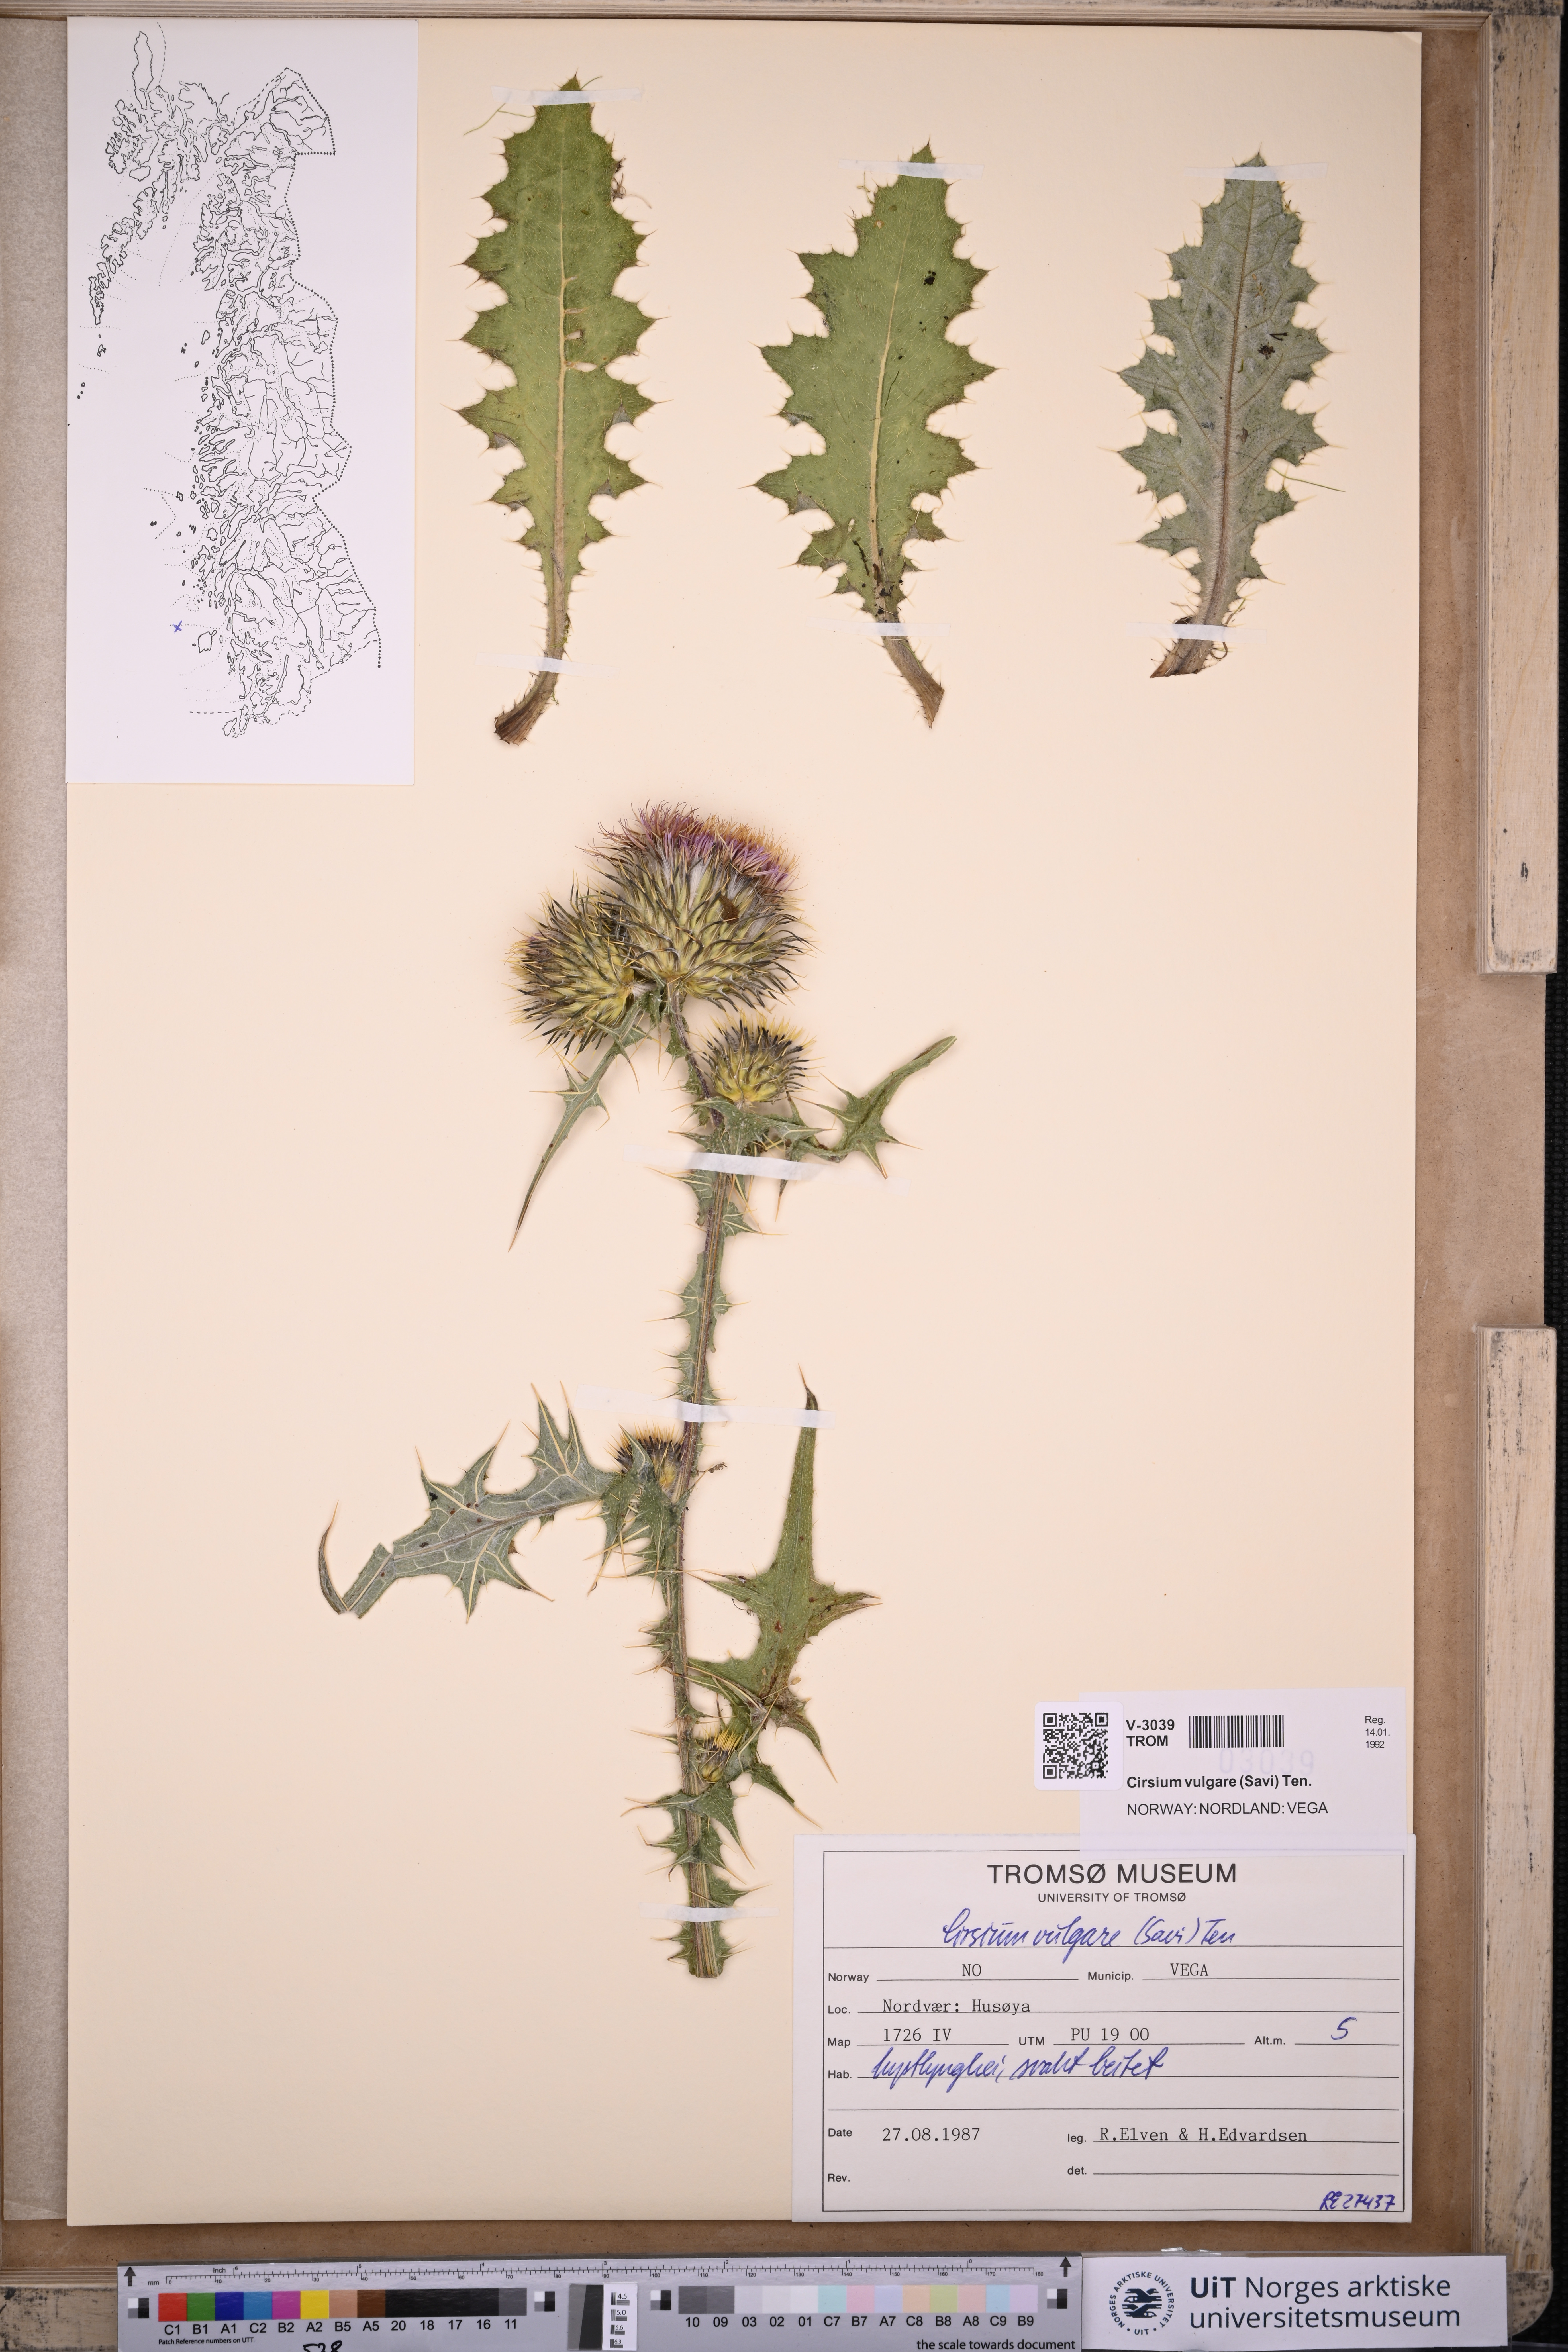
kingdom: Plantae
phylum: Tracheophyta
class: Magnoliopsida
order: Asterales
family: Asteraceae
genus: Cirsium
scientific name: Cirsium vulgare
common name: Bull thistle
